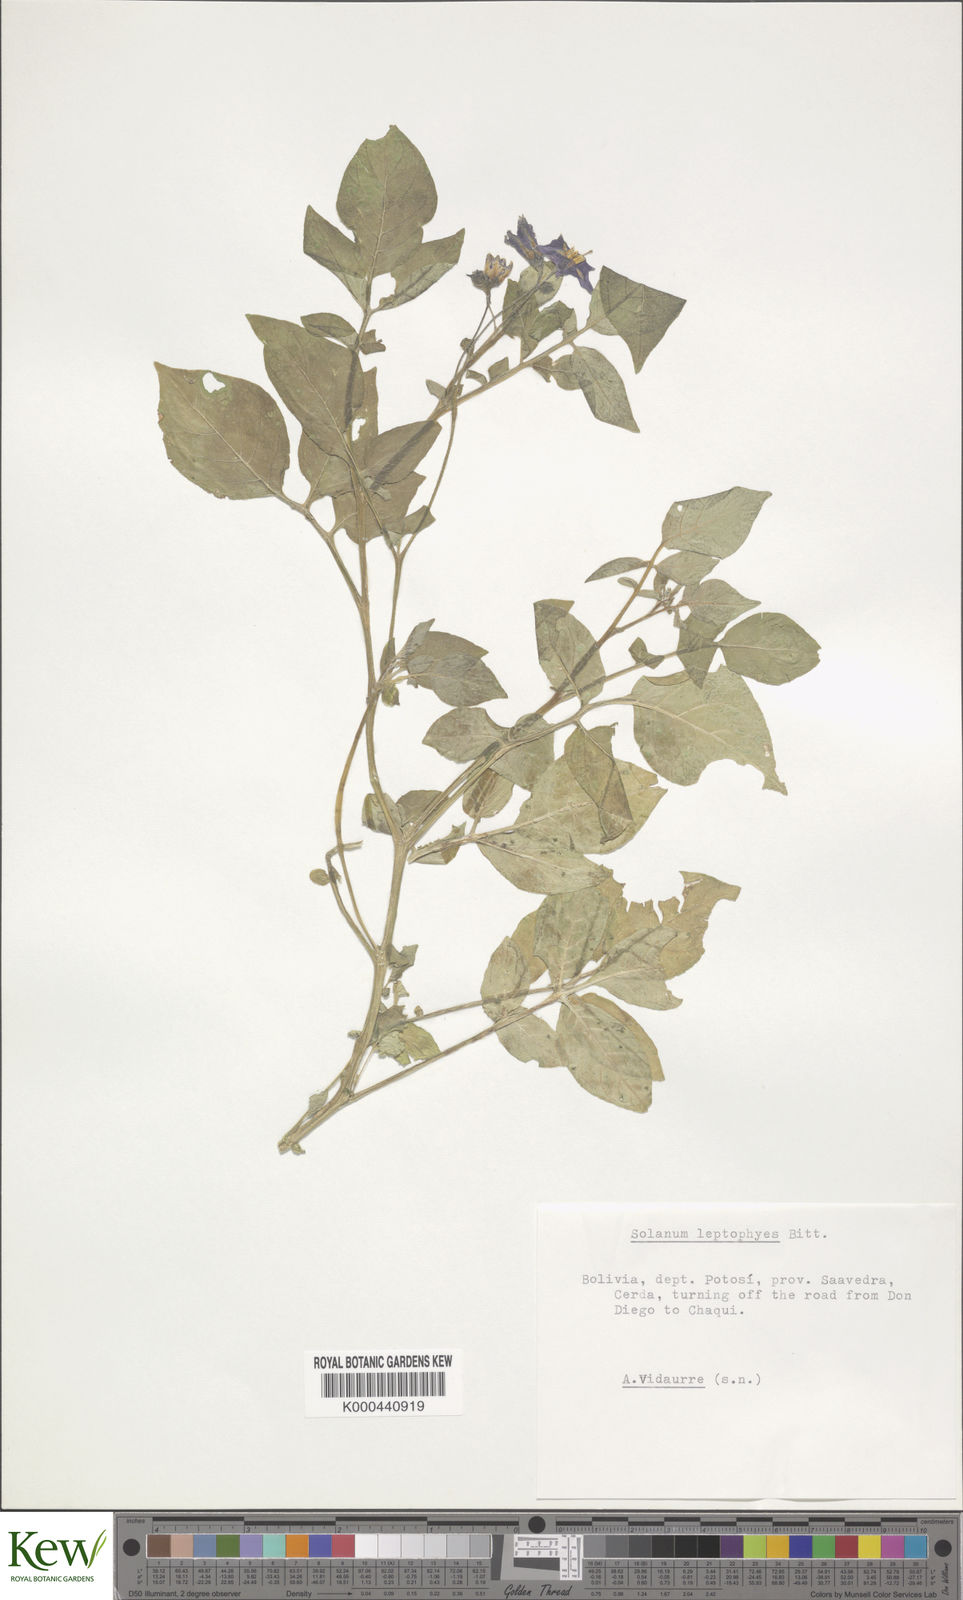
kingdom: Plantae
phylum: Tracheophyta
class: Magnoliopsida
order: Solanales
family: Solanaceae
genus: Solanum
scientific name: Solanum brevicaule
